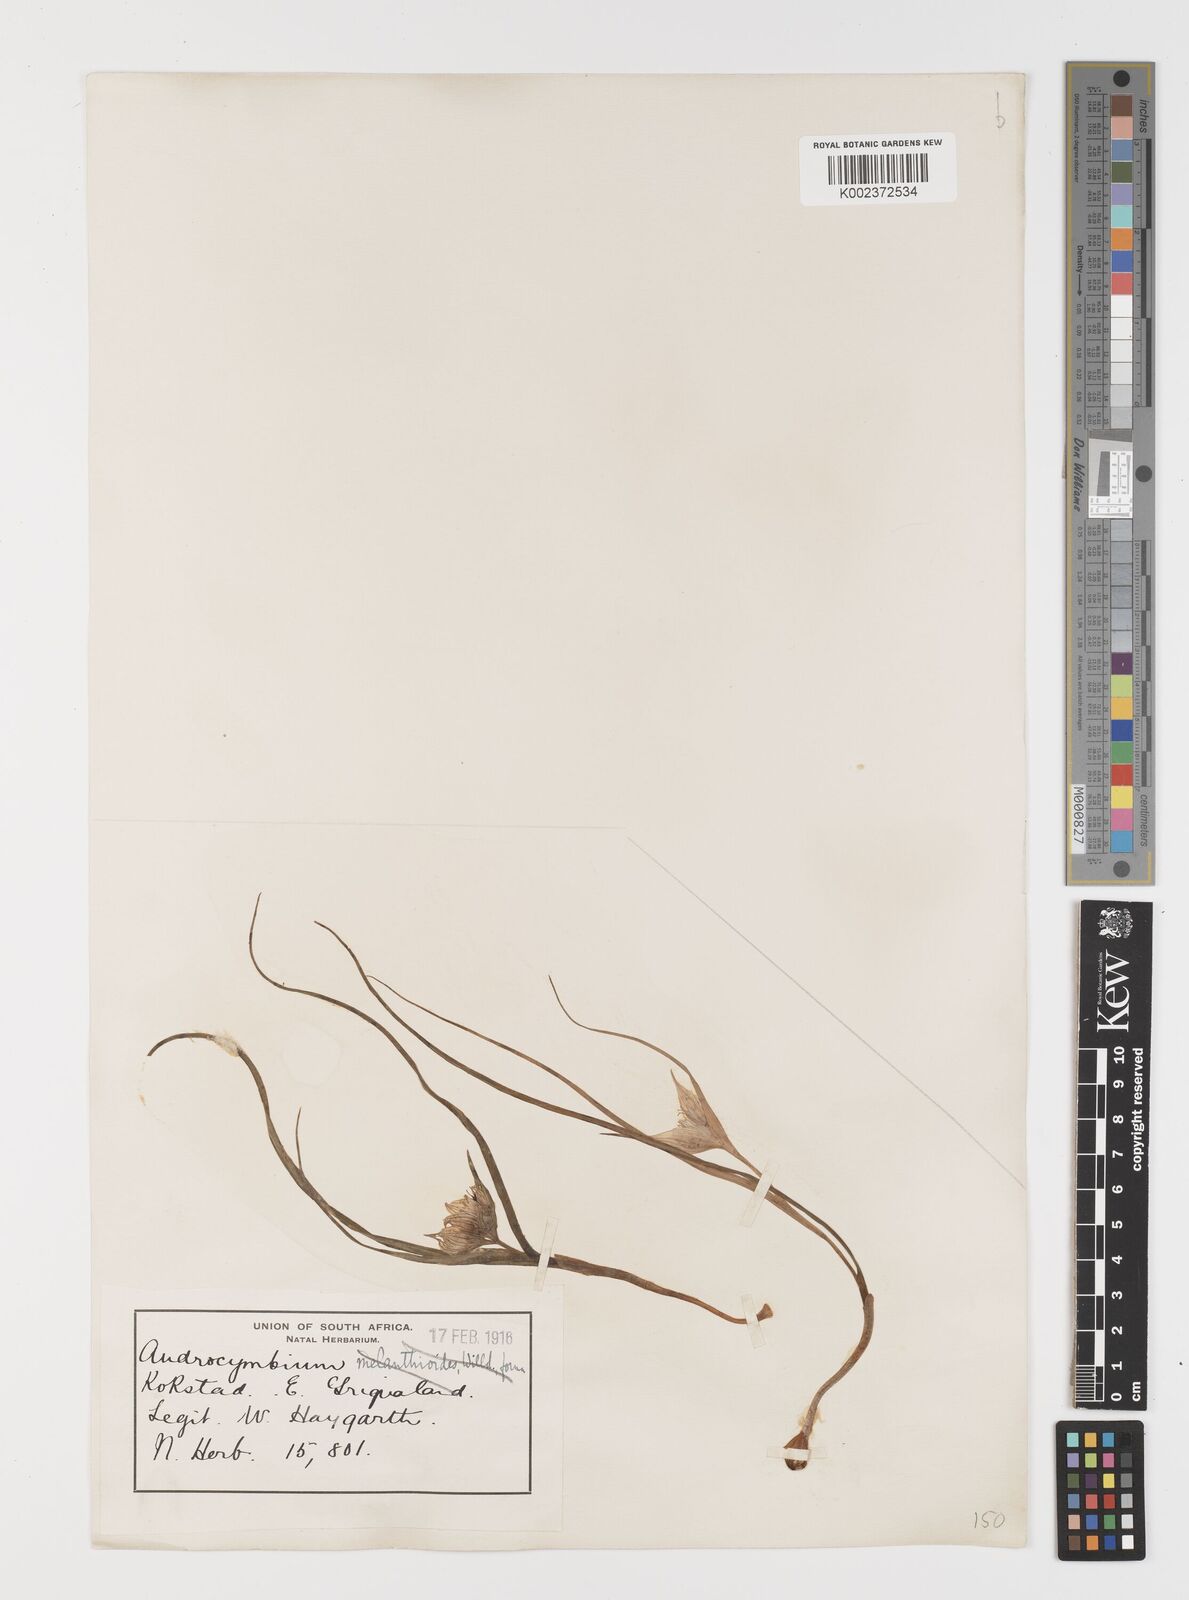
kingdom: Plantae
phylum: Tracheophyta
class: Liliopsida
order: Liliales
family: Colchicaceae
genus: Colchicum
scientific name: Colchicum melanthioides
